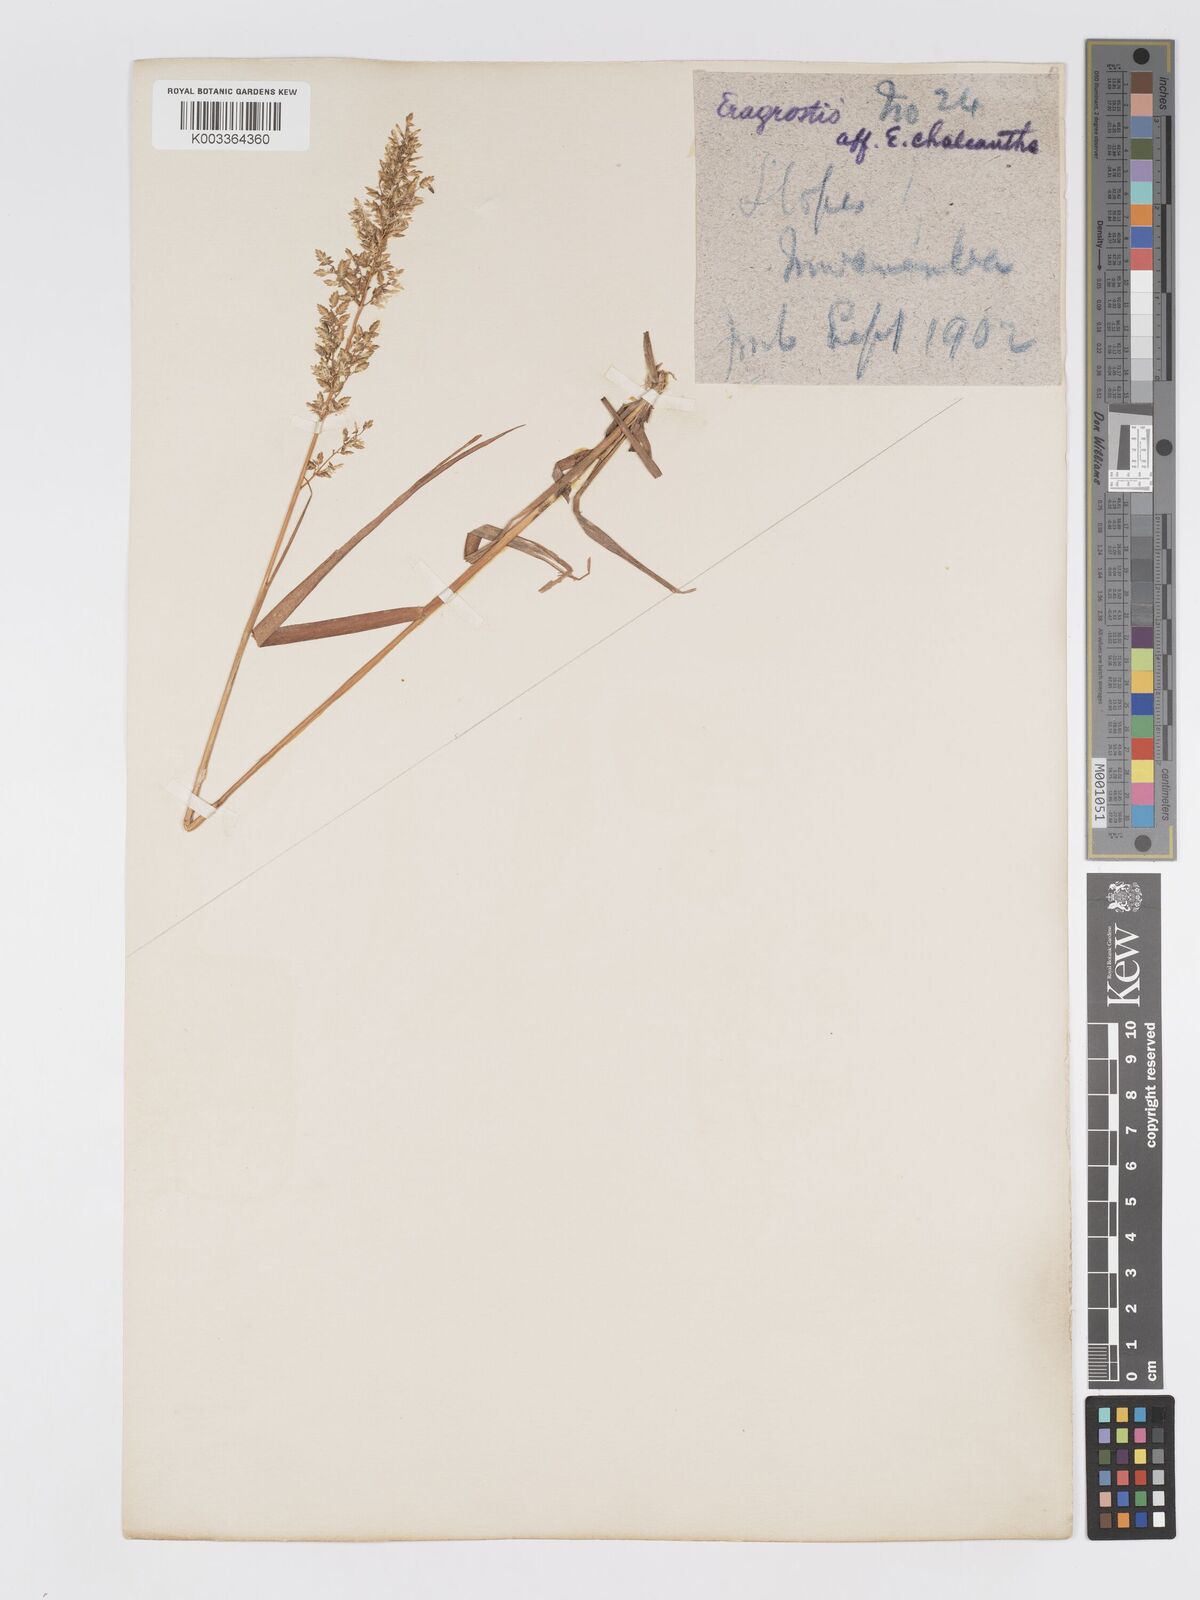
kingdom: Plantae
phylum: Tracheophyta
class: Liliopsida
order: Poales
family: Poaceae
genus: Eragrostis
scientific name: Eragrostis racemosa
